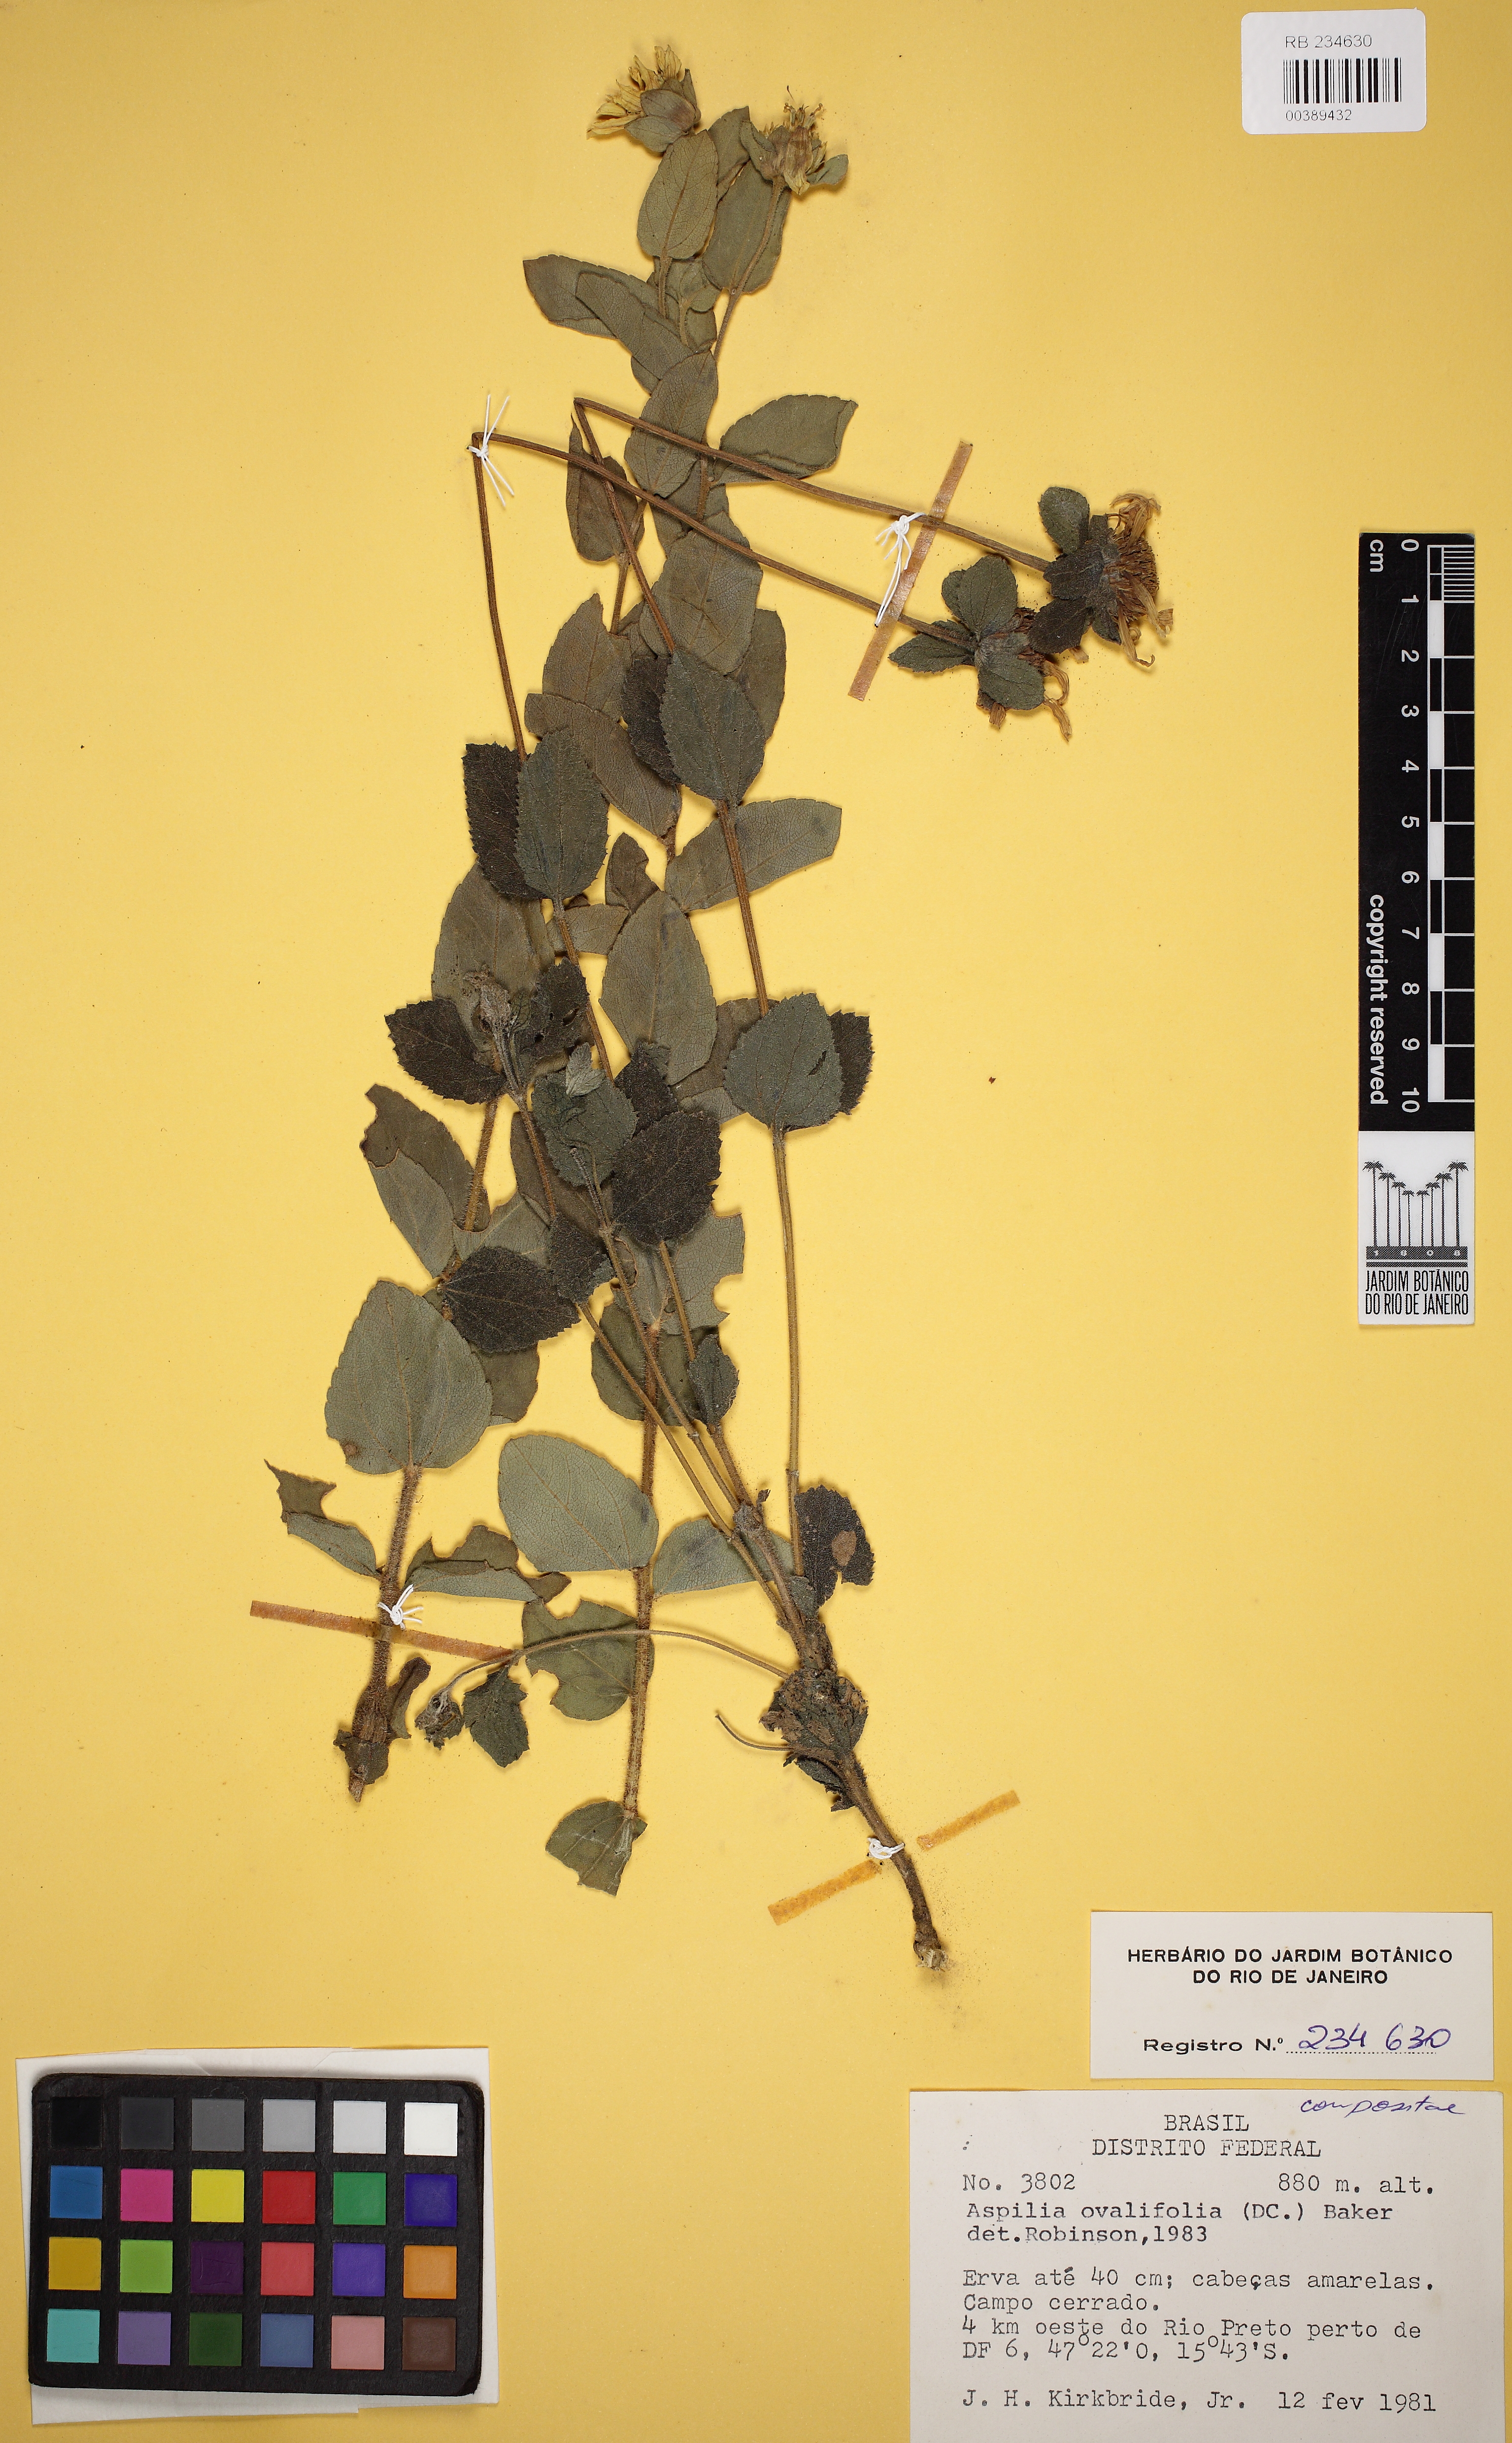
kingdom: Plantae
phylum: Tracheophyta
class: Magnoliopsida
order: Asterales
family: Asteraceae
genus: Wedelia
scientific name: Wedelia ovalifolia
